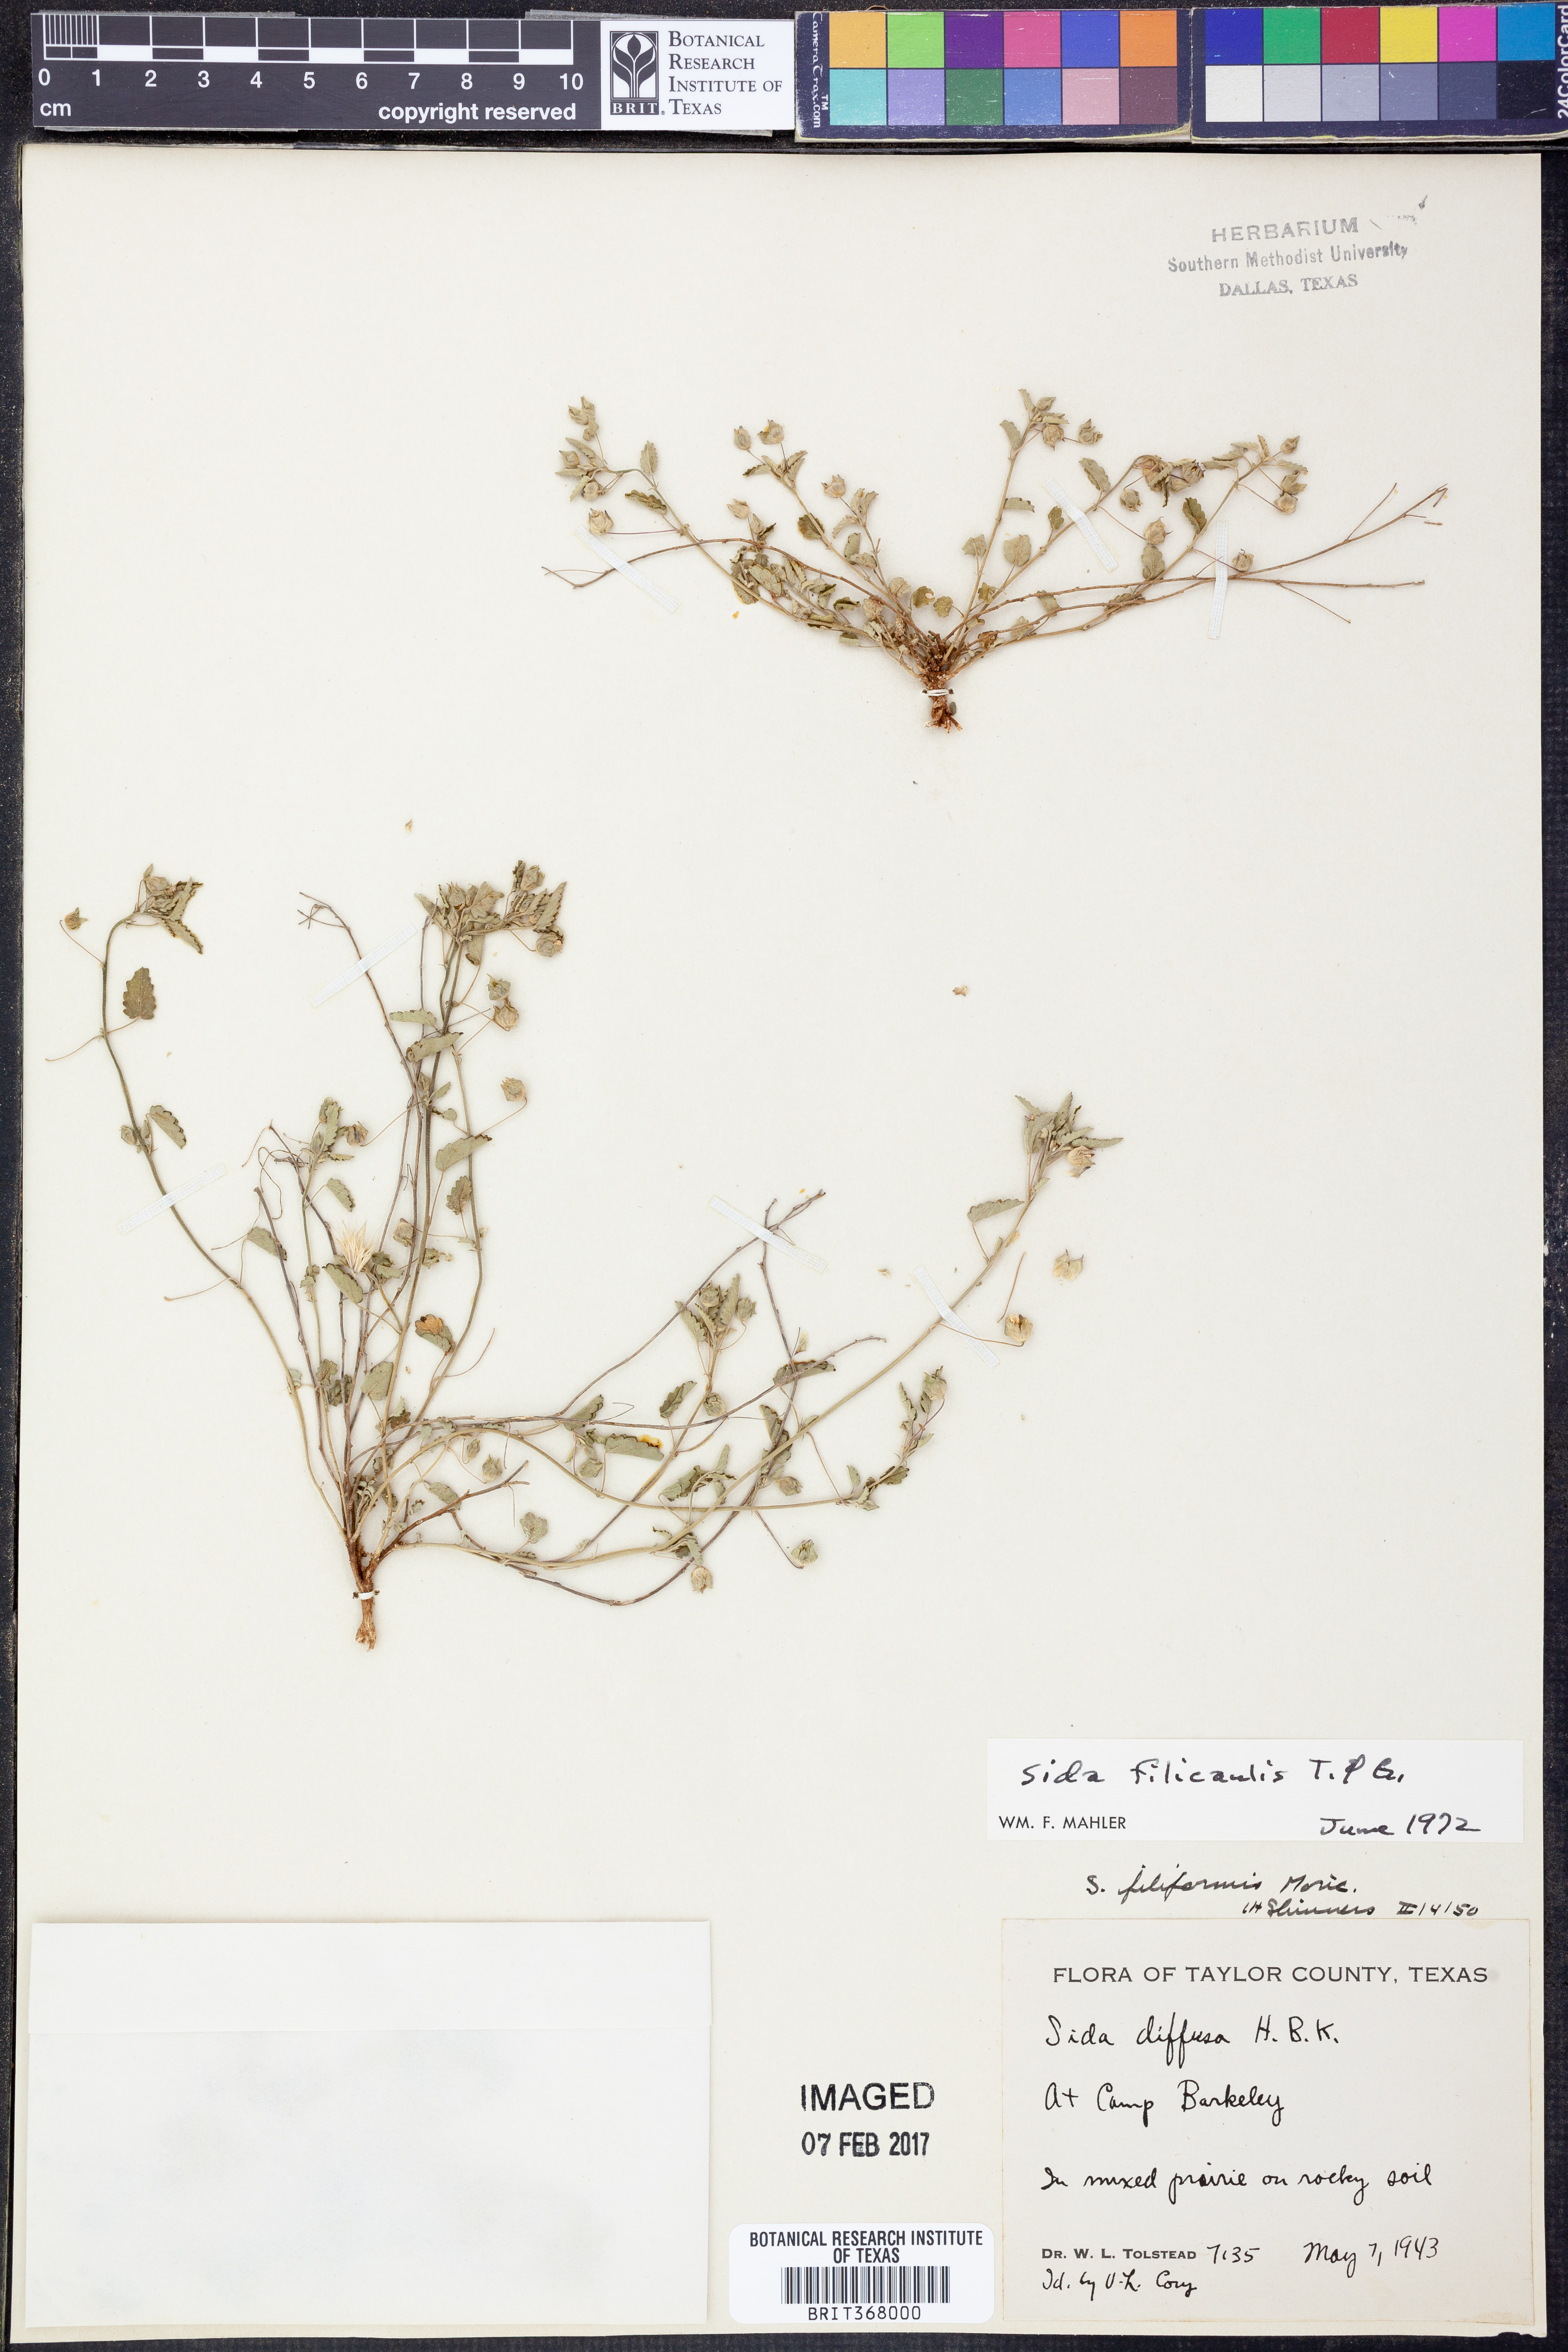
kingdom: Plantae
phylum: Tracheophyta
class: Magnoliopsida
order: Malvales
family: Malvaceae
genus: Sida
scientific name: Sida abutilifolia
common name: Spreading fanpetals
